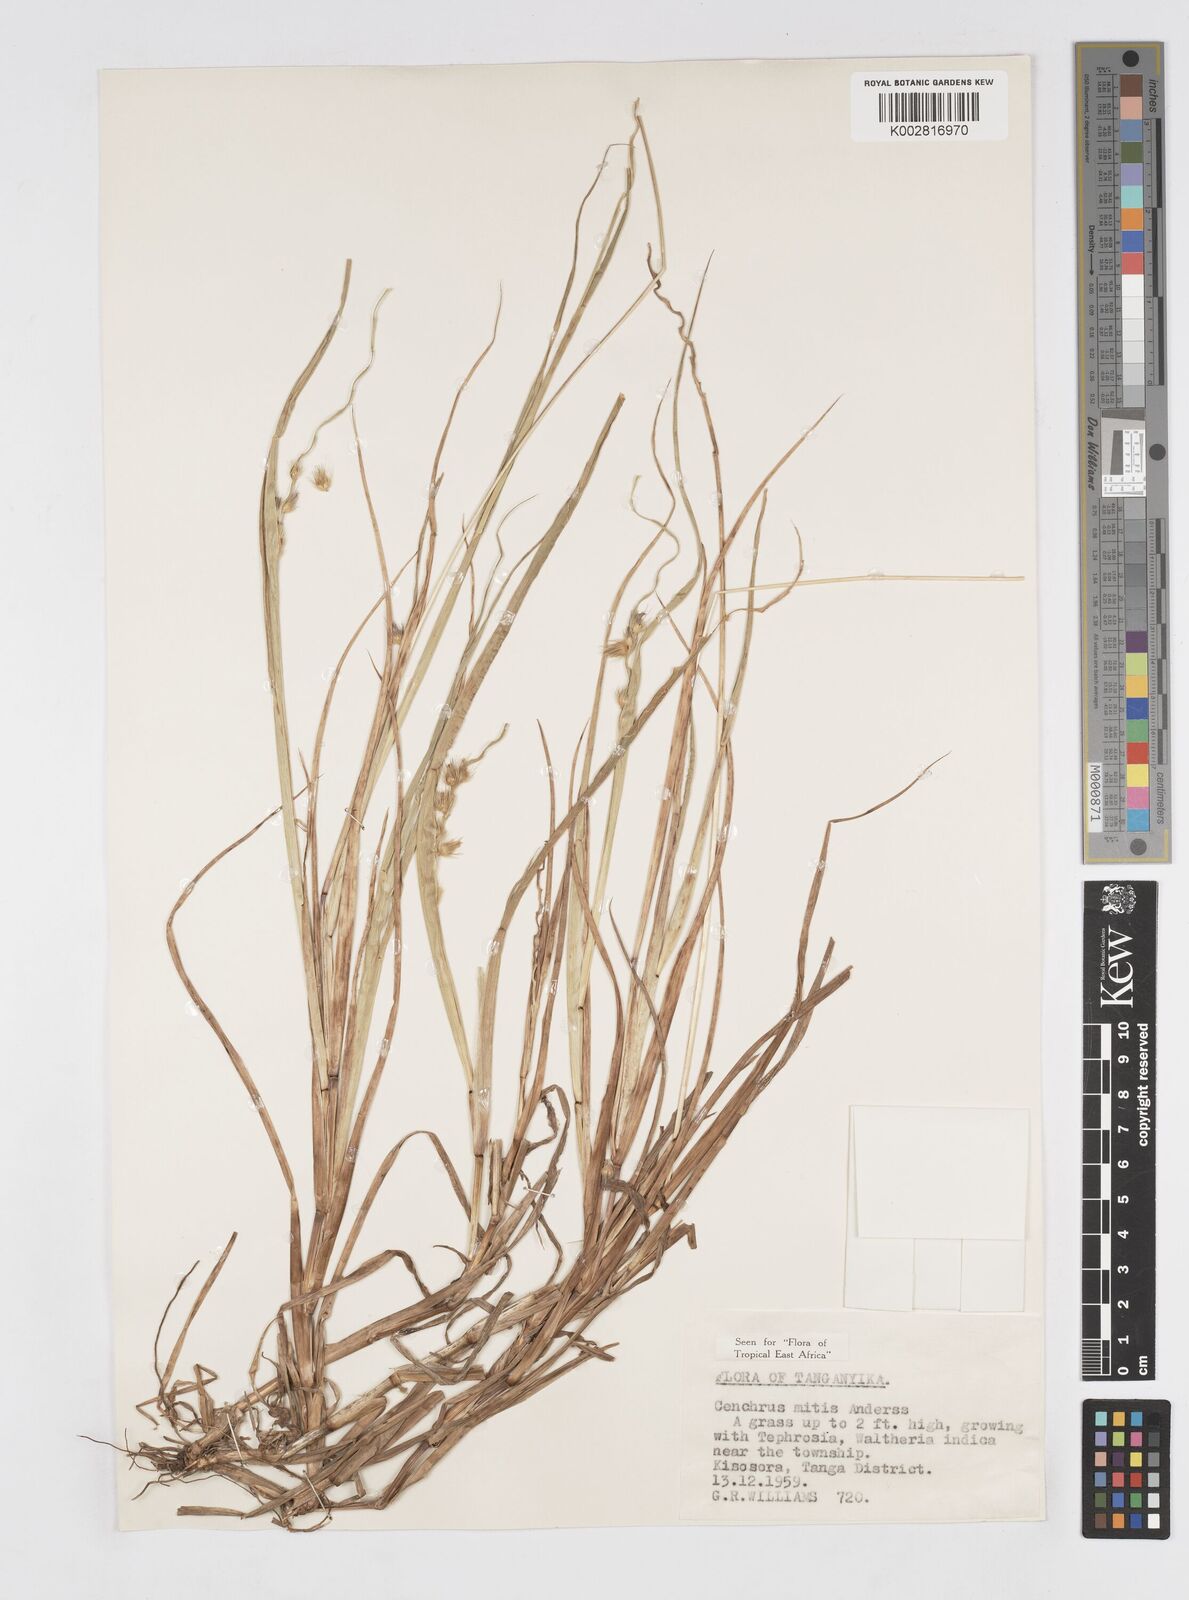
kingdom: Plantae
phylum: Tracheophyta
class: Liliopsida
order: Poales
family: Poaceae
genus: Cenchrus
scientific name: Cenchrus mitis
